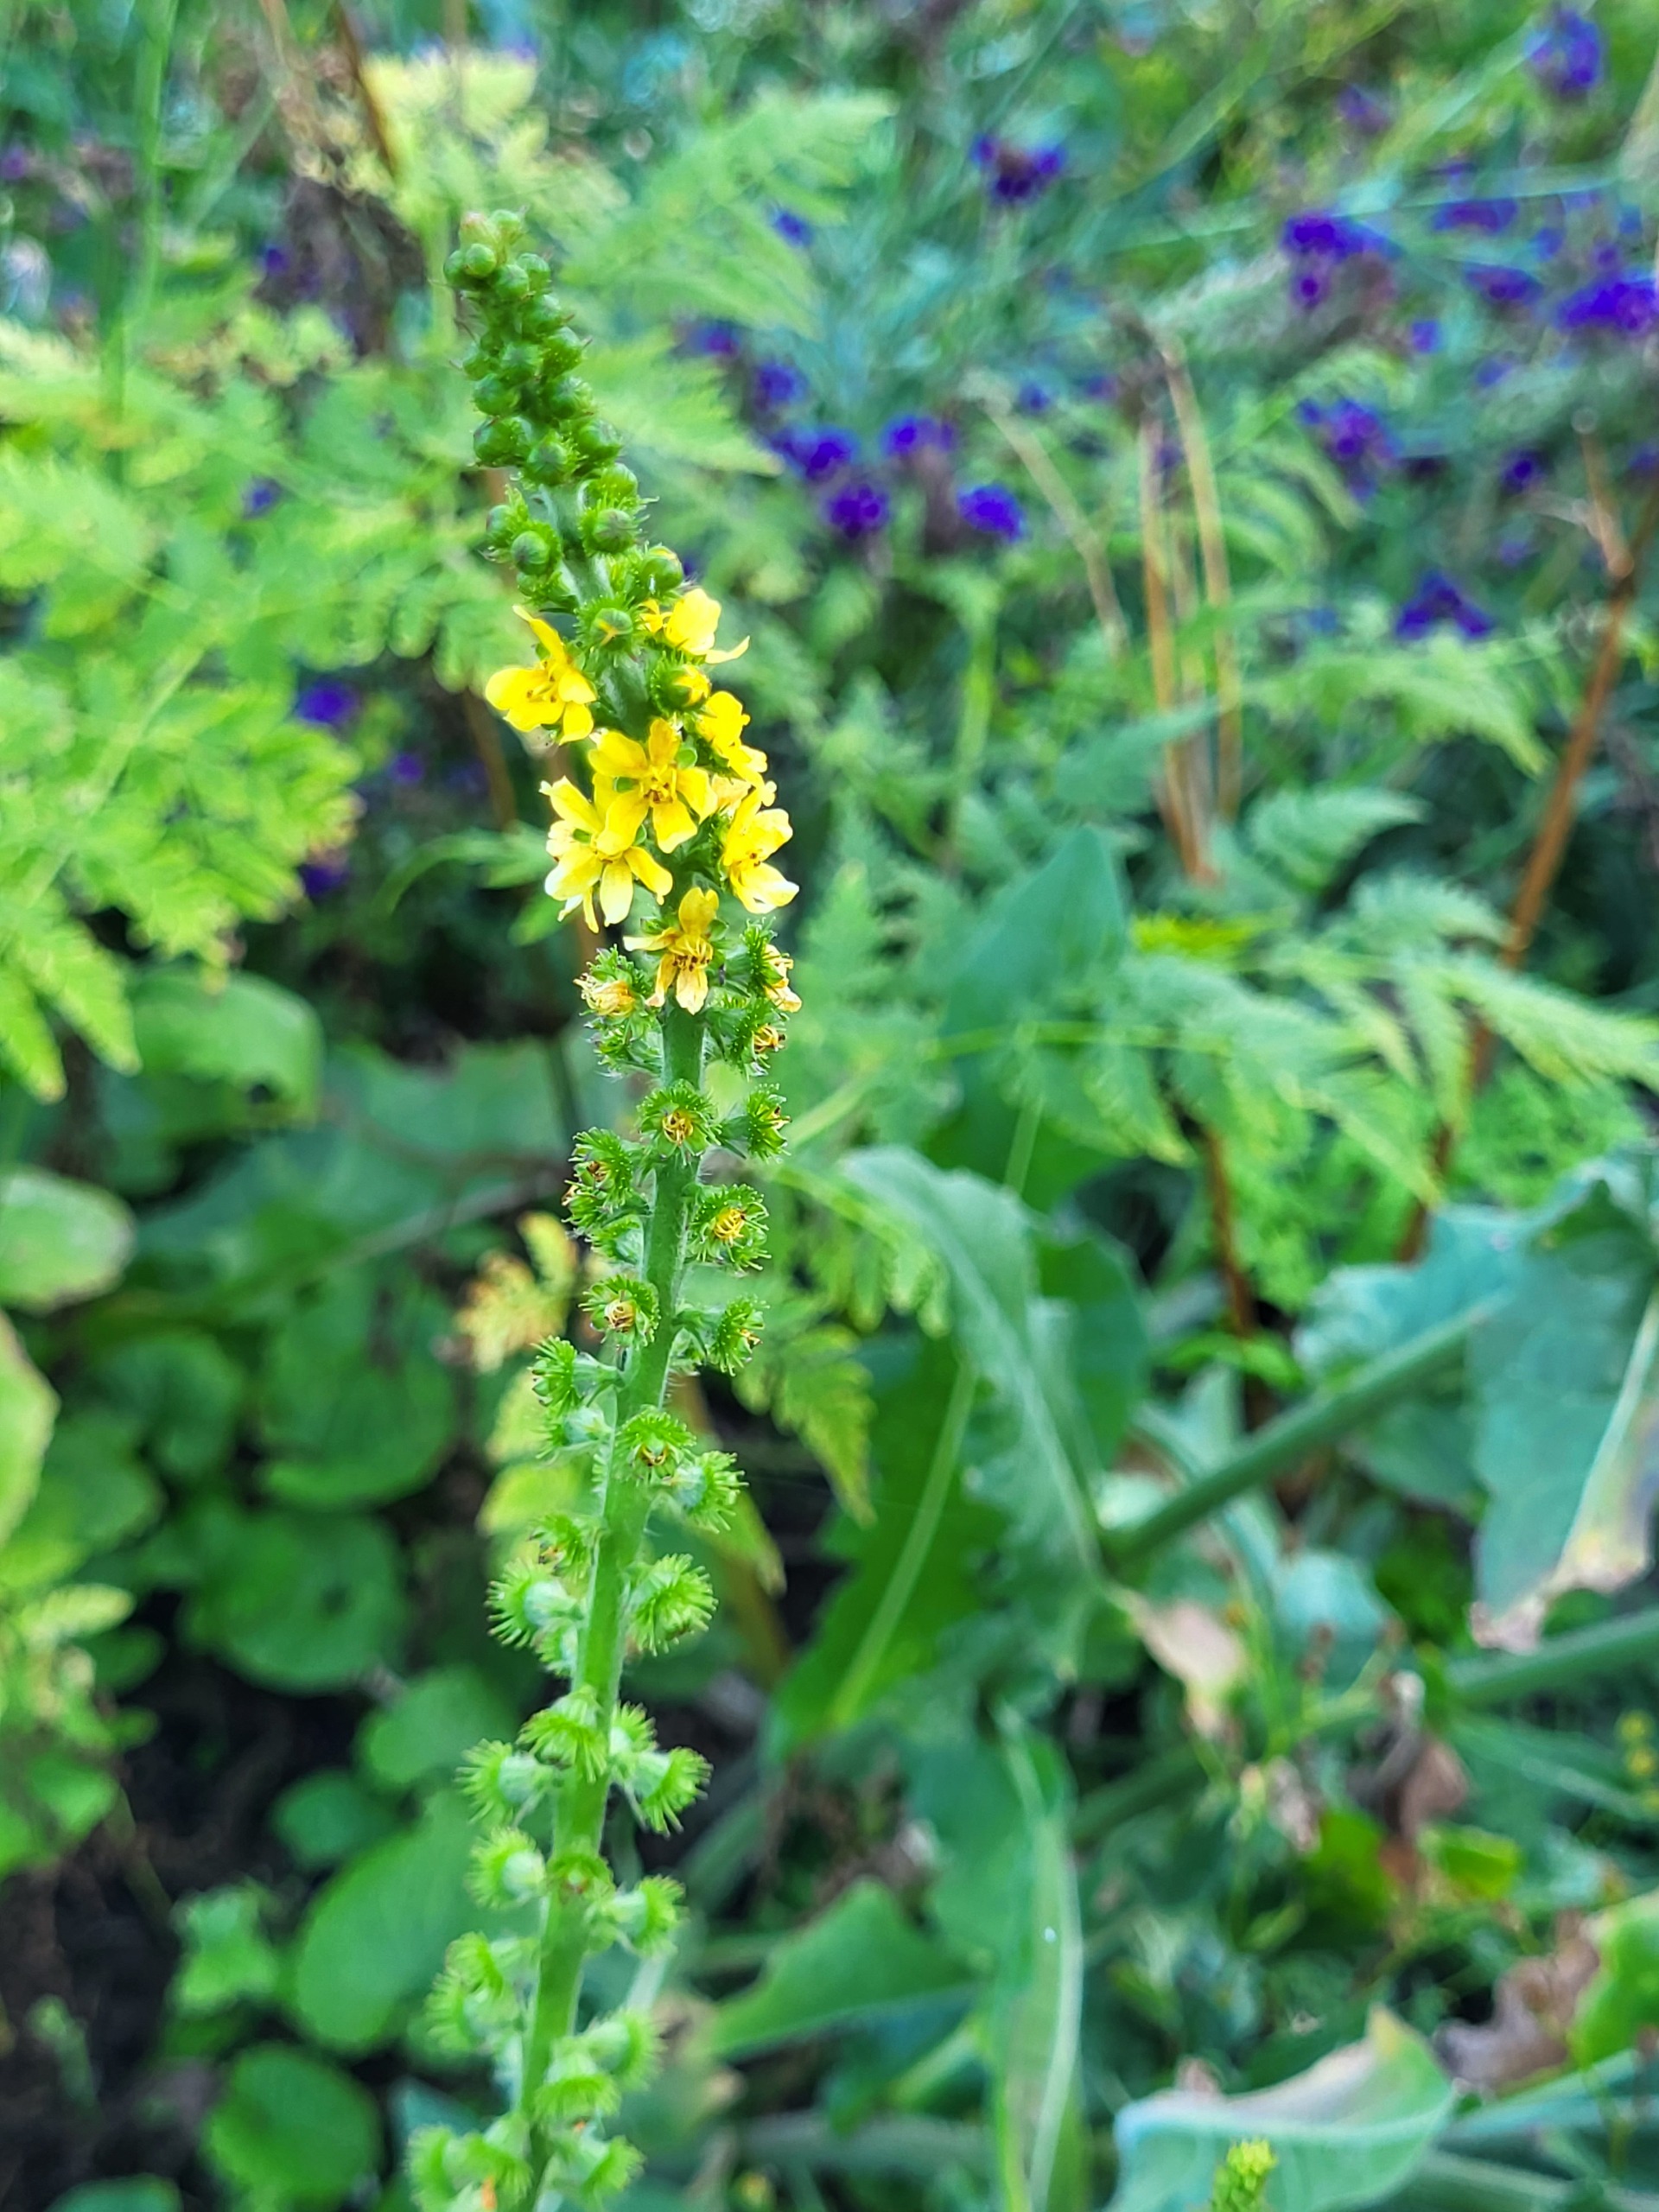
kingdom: Plantae
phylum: Tracheophyta
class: Magnoliopsida
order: Rosales
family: Rosaceae
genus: Agrimonia
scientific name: Agrimonia eupatoria
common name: Almindelig agermåne
